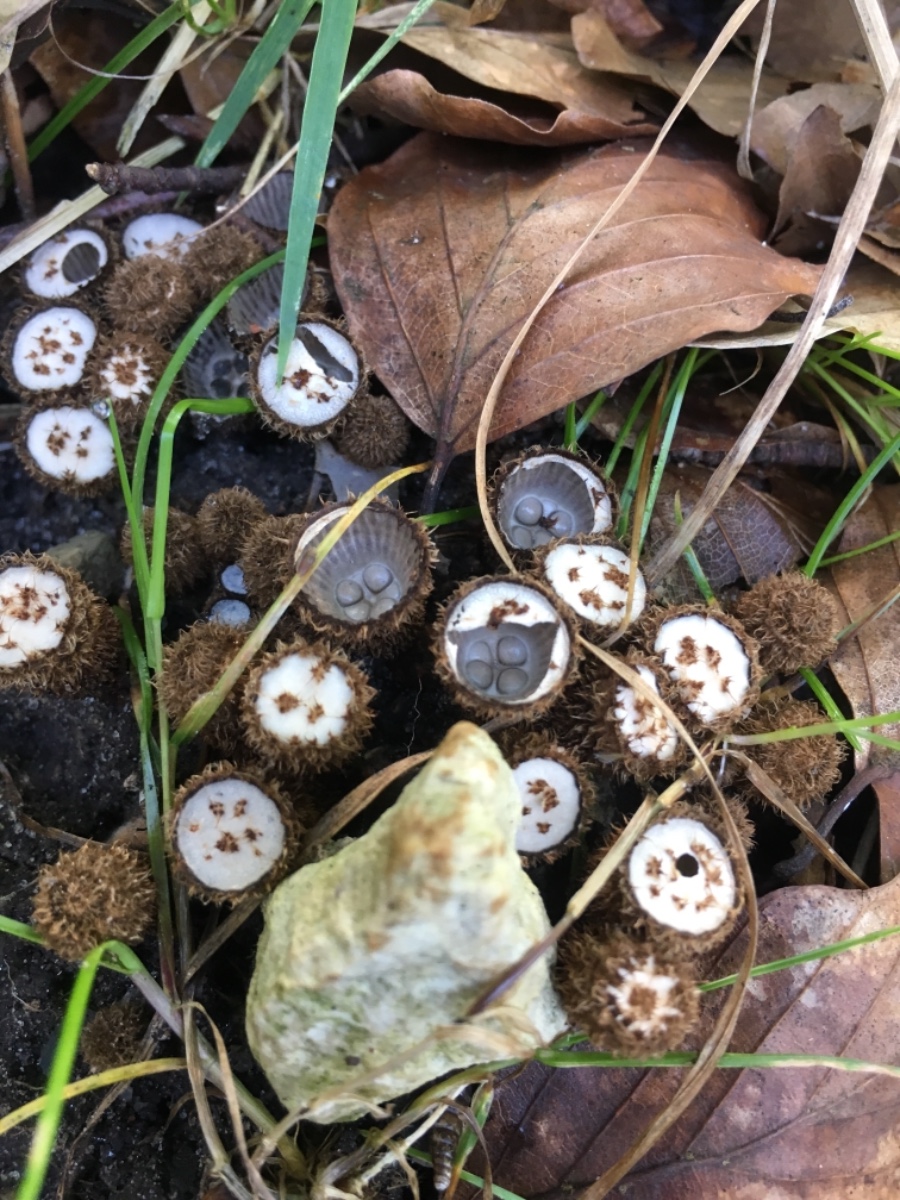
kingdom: Fungi
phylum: Basidiomycota
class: Agaricomycetes
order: Agaricales
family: Agaricaceae
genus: Cyathus
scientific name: Cyathus striatus
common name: stribet redesvamp
